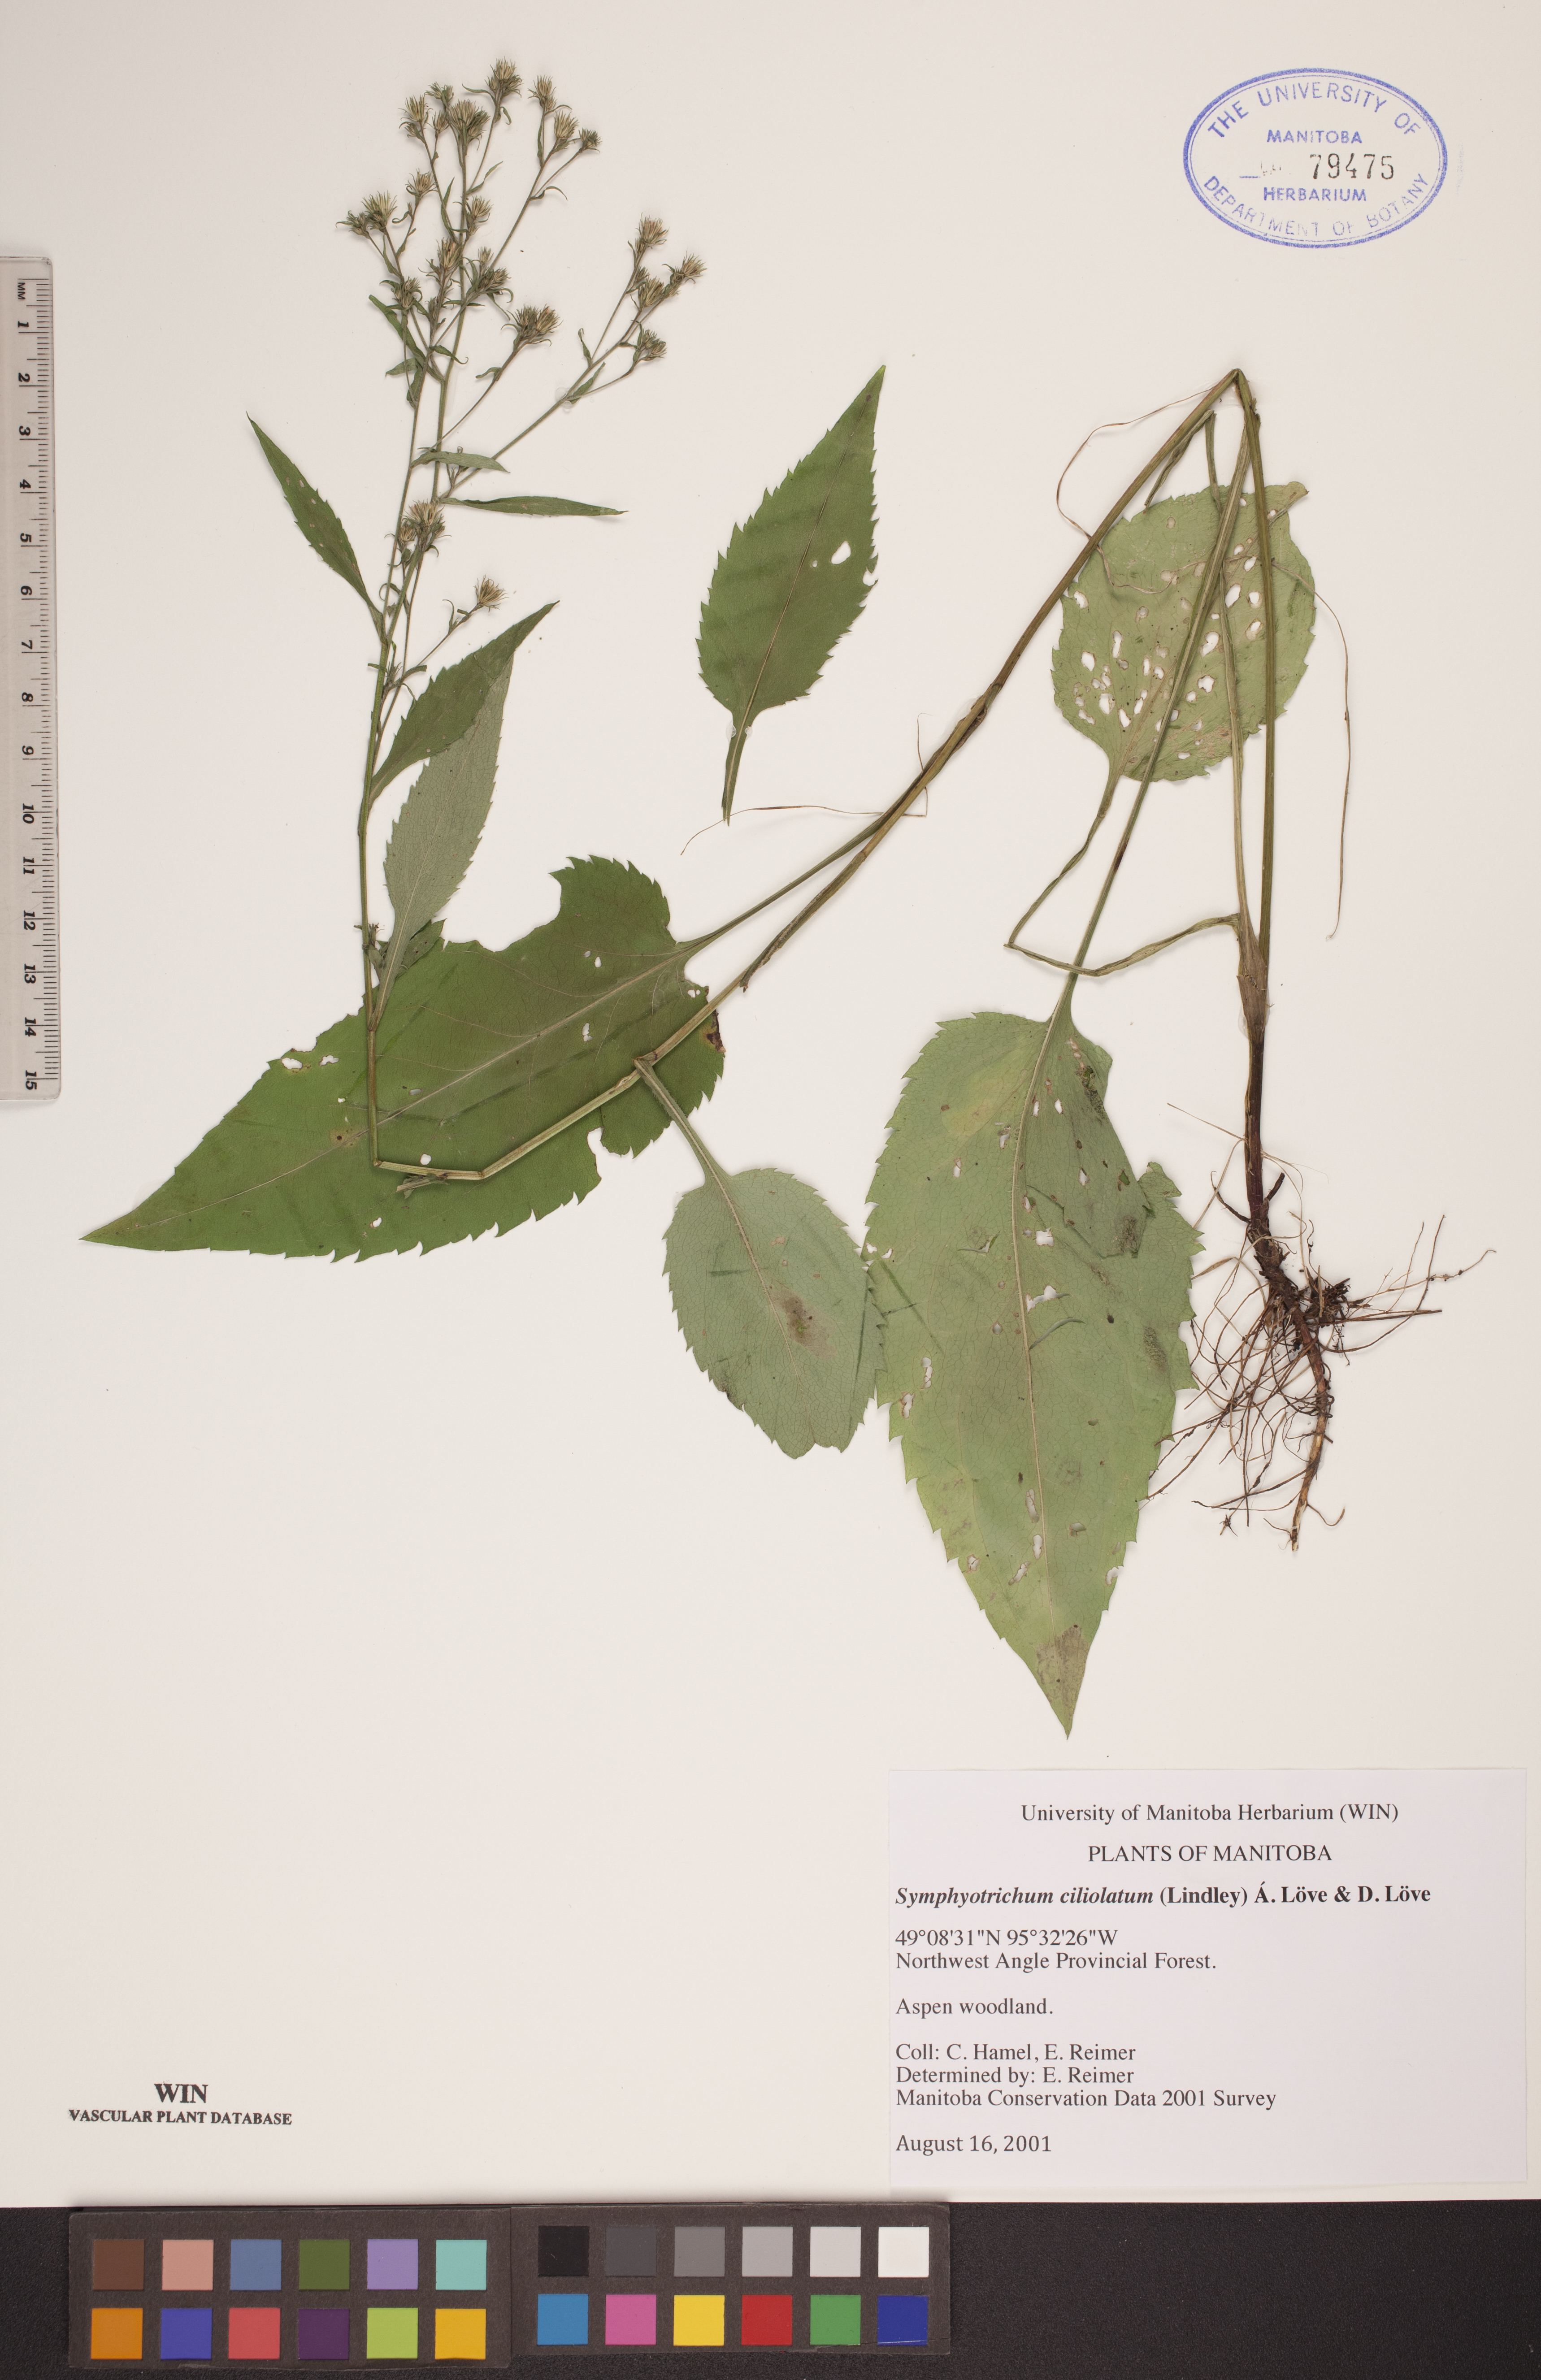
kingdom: Plantae
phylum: Tracheophyta
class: Magnoliopsida
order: Asterales
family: Asteraceae
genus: Symphyotrichum
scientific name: Symphyotrichum ciliolatum
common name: Fringed blue aster
